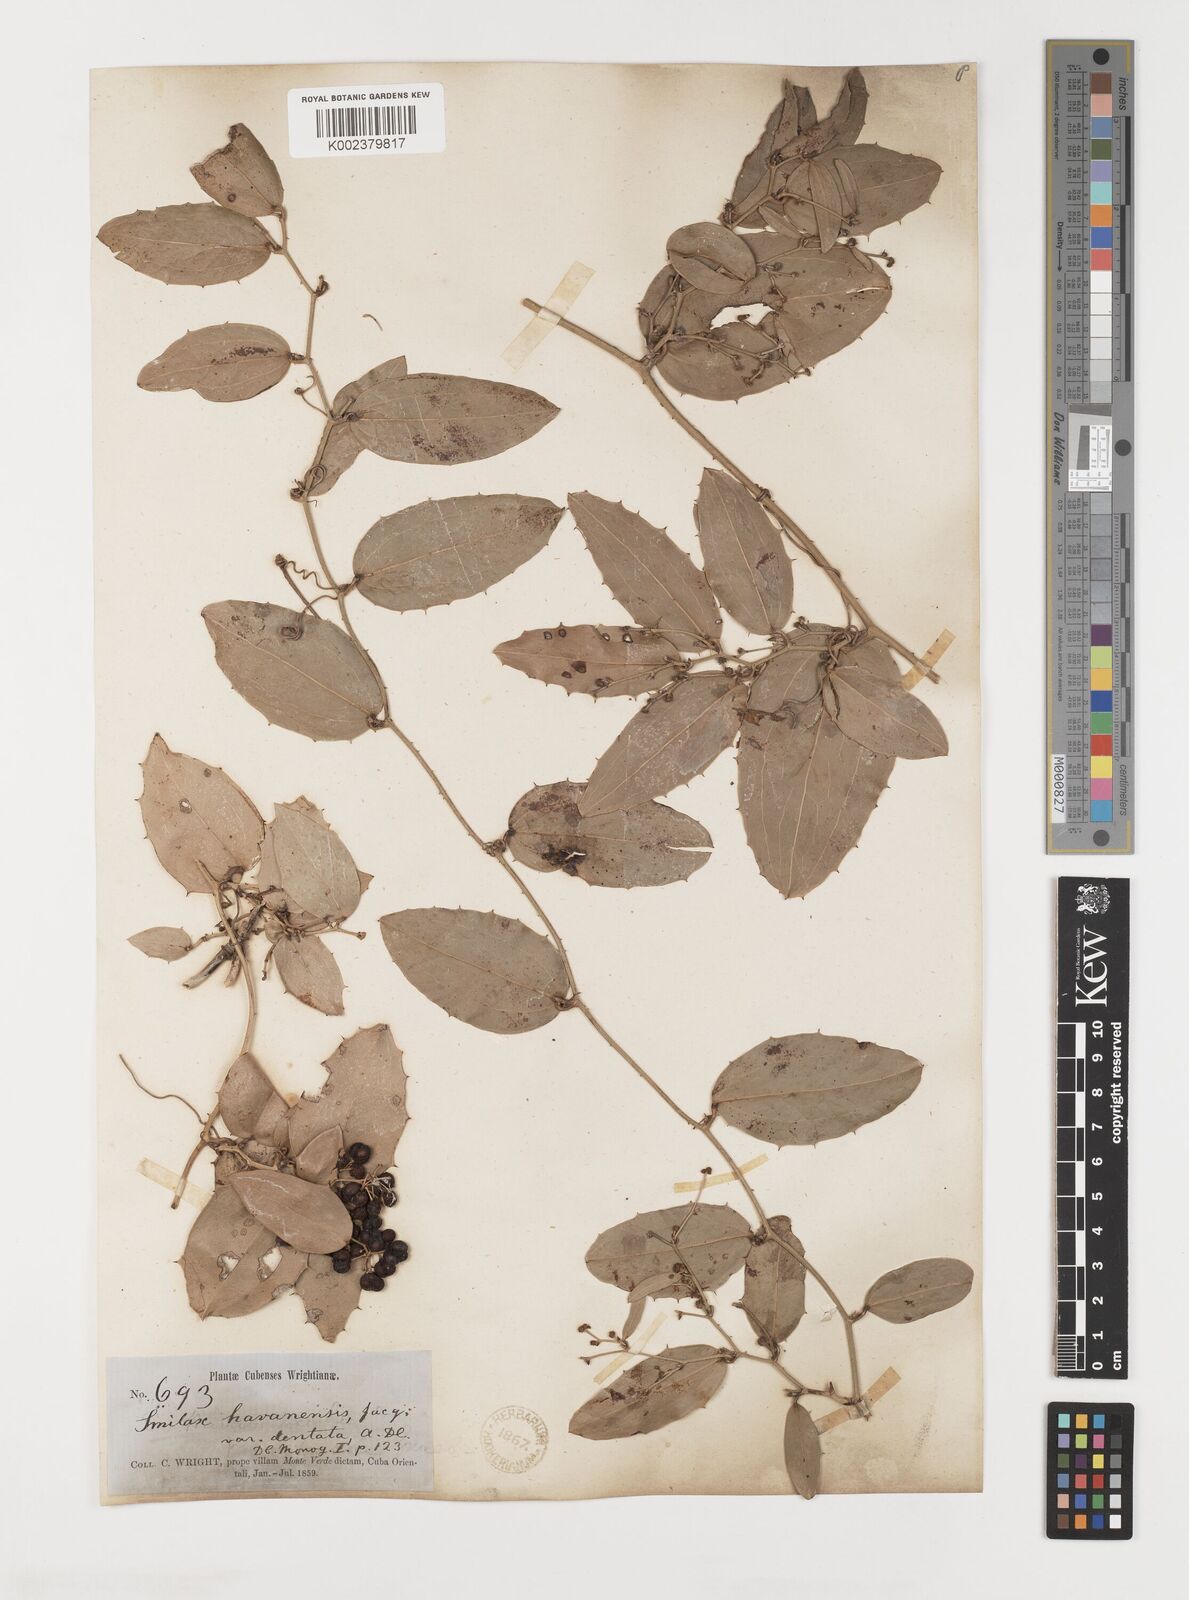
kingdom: Plantae
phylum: Tracheophyta
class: Liliopsida
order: Liliales
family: Smilacaceae
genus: Smilax
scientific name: Smilax populnea
